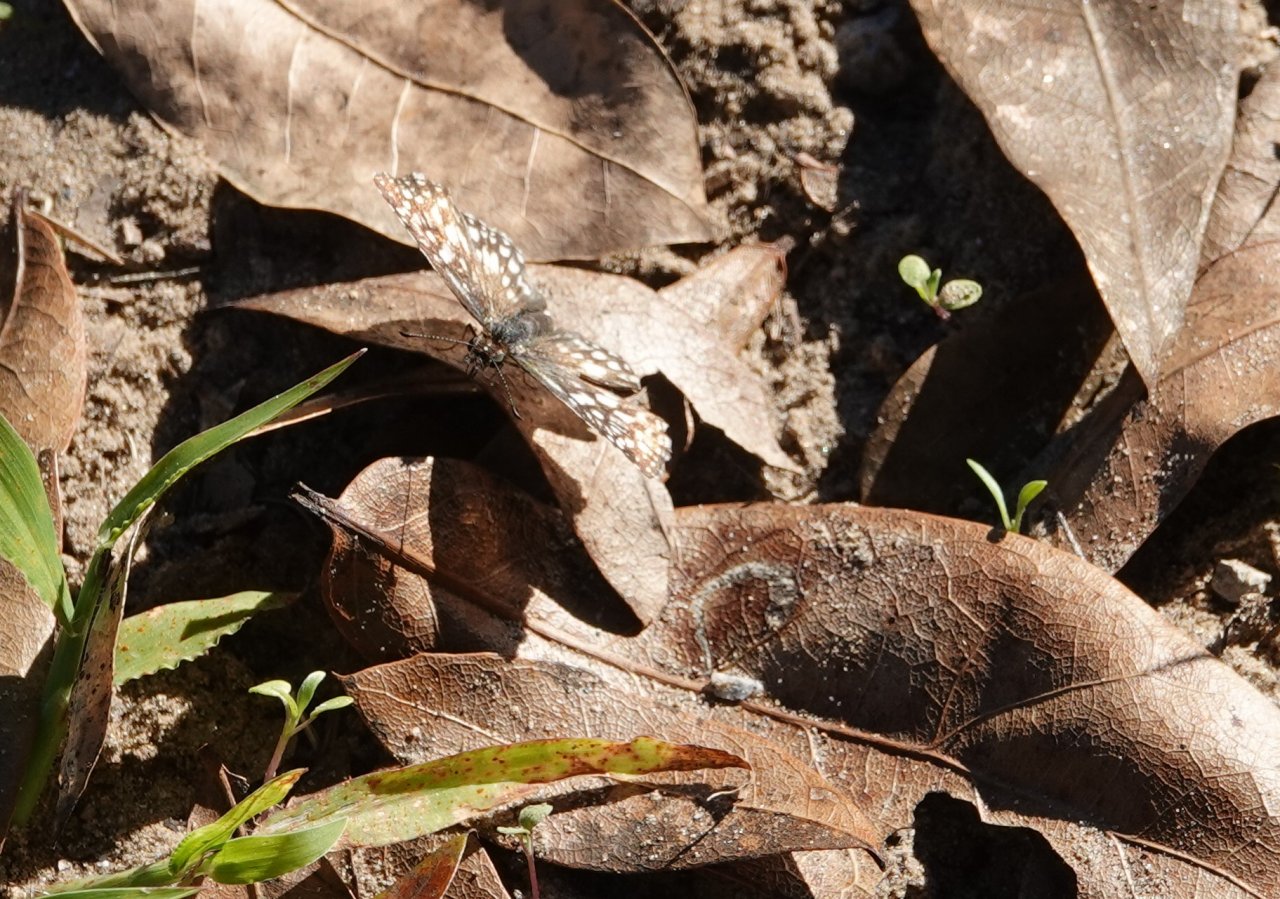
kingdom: Animalia
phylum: Arthropoda
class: Insecta
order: Lepidoptera
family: Hesperiidae
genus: Pyrgus
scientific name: Pyrgus oileus
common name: Tropical Checkered-Skipper
